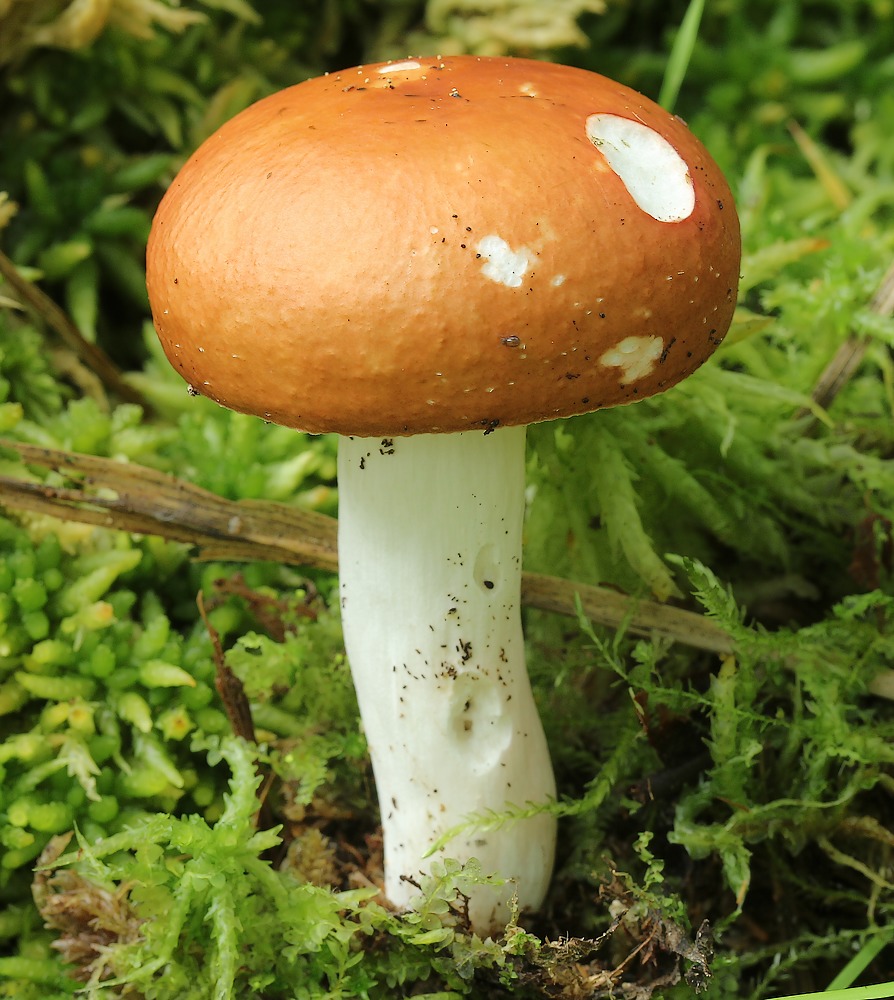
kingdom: Fungi
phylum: Basidiomycota
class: Agaricomycetes
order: Russulales
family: Russulaceae
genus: Russula
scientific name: Russula
